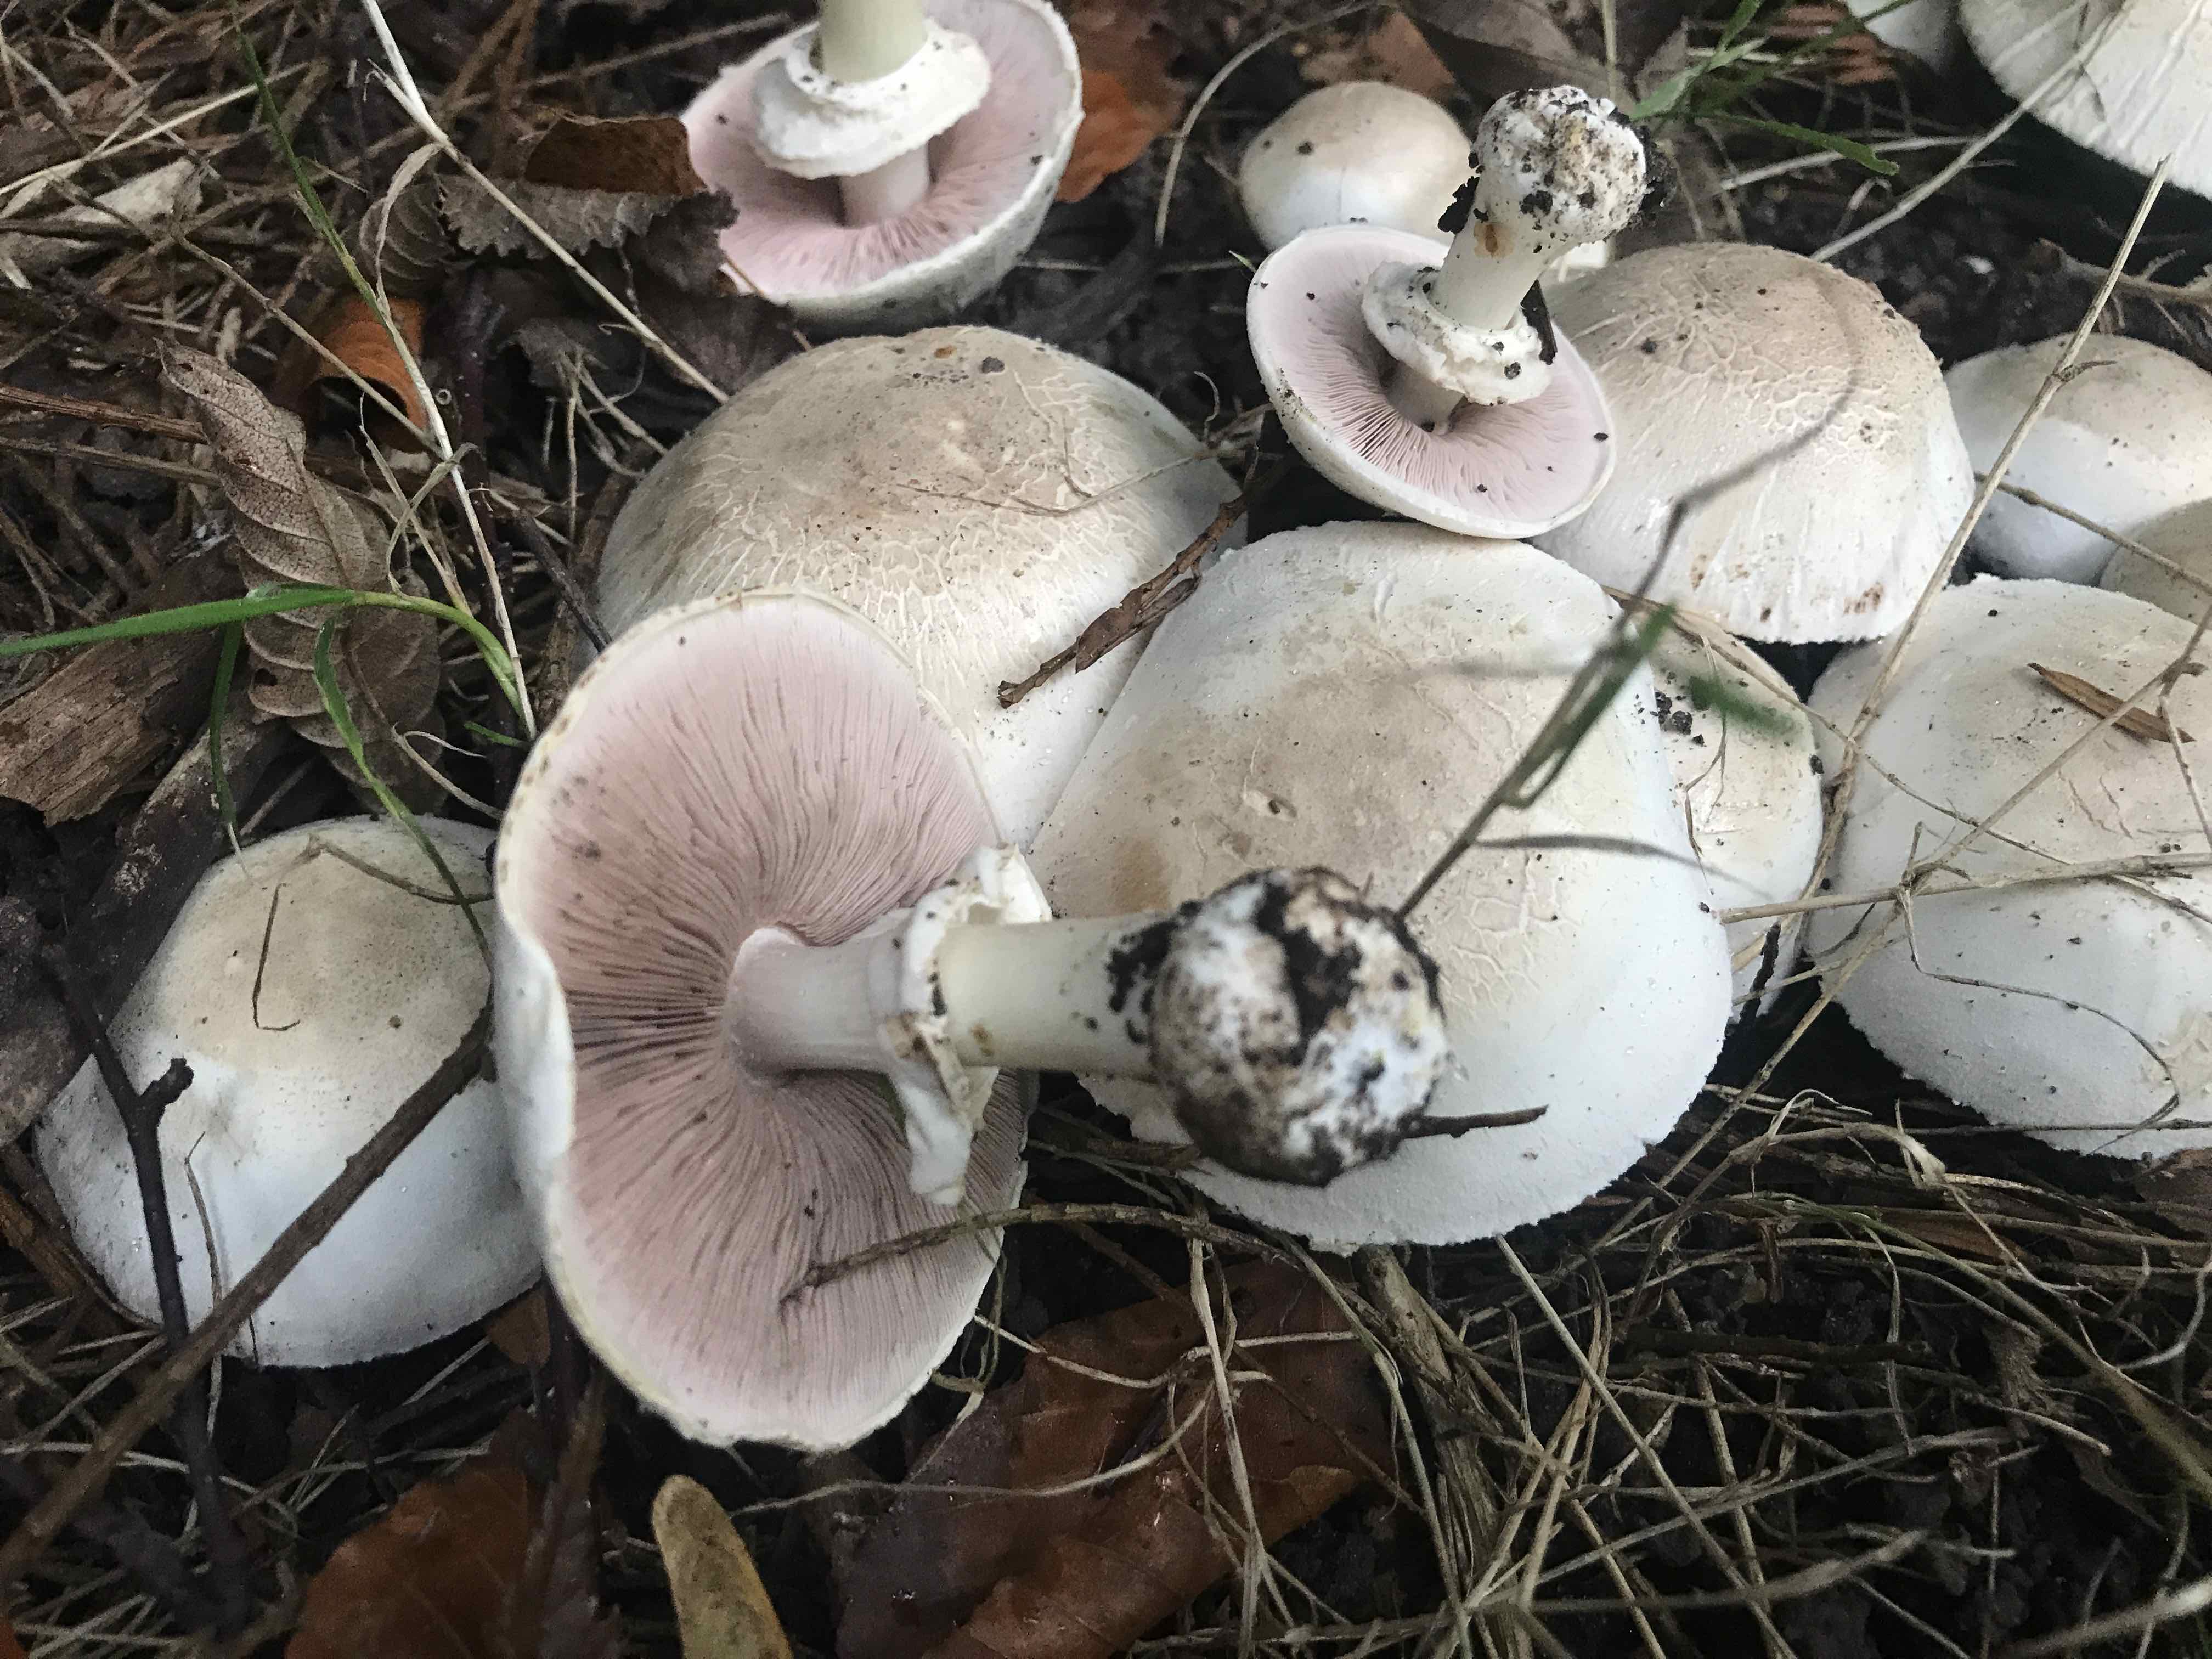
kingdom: Fungi
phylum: Basidiomycota
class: Agaricomycetes
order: Agaricales
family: Agaricaceae
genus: Agaricus
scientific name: Agaricus xanthodermus
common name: karbol-champignon
